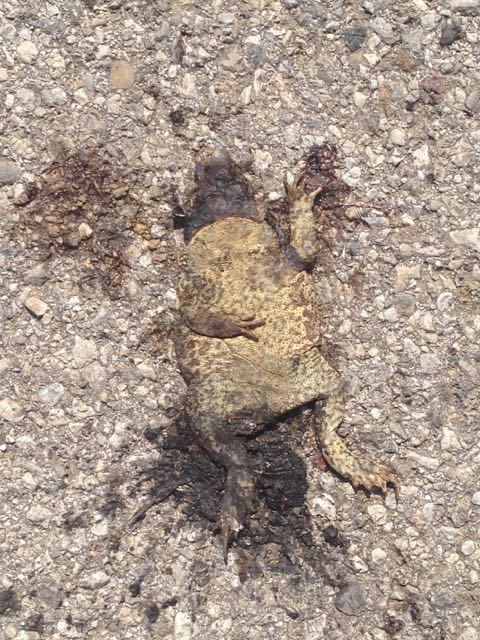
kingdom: Animalia
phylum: Chordata
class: Amphibia
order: Anura
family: Bufonidae
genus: Bufo
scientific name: Bufo bufo
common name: Common toad
